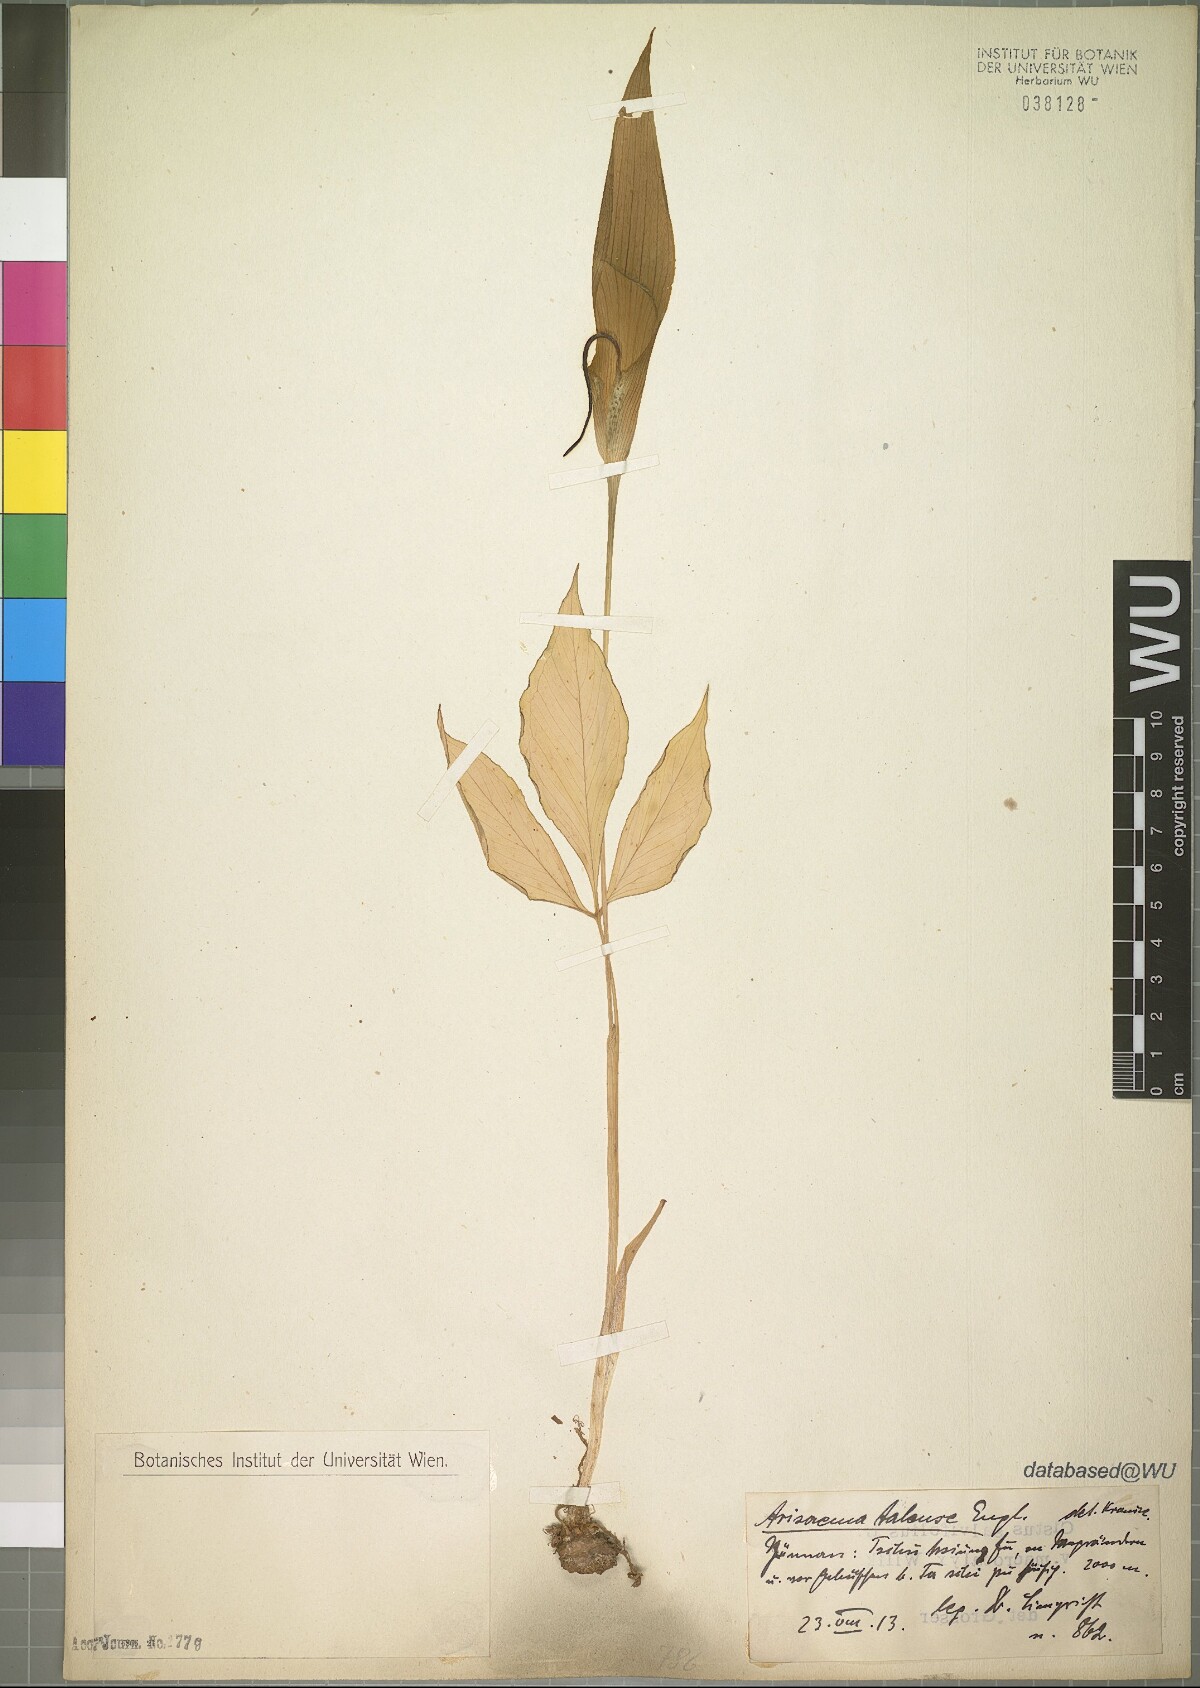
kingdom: Plantae
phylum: Tracheophyta
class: Liliopsida
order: Alismatales
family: Araceae
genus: Arisaema
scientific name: Arisaema lichiangense
